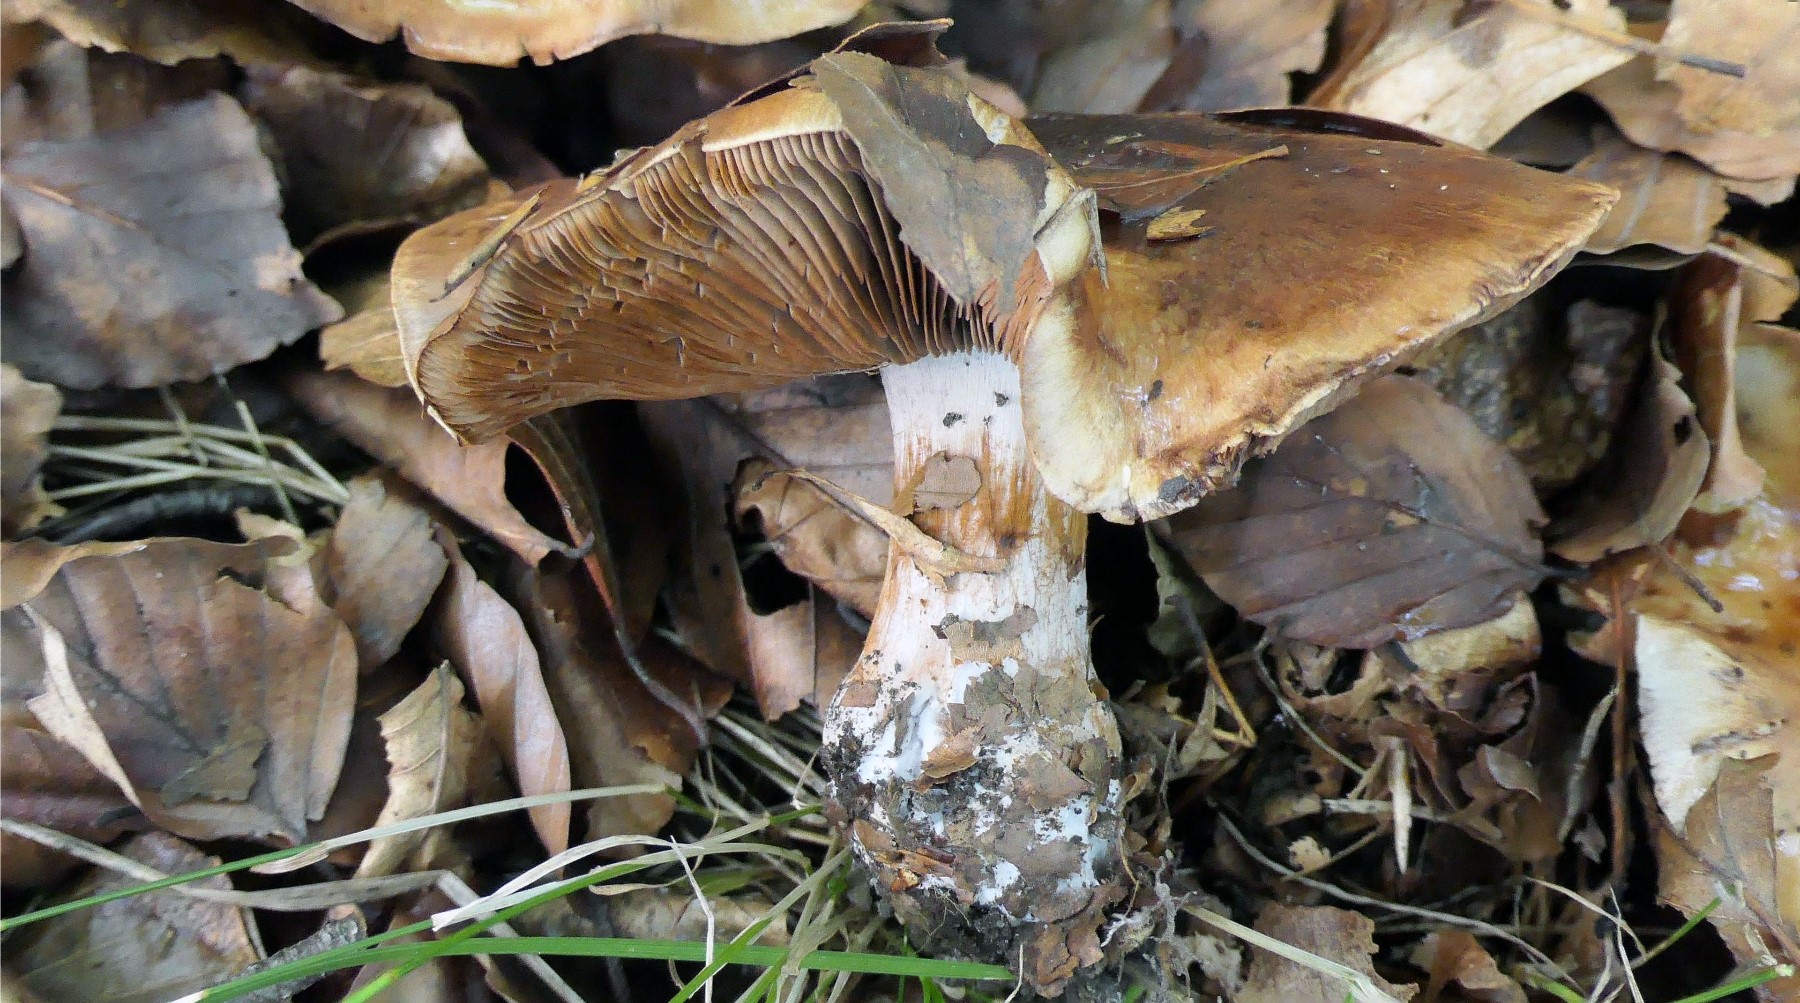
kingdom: Fungi
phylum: Basidiomycota
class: Agaricomycetes
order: Agaricales
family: Cortinariaceae
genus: Cortinarius
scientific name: Cortinarius
